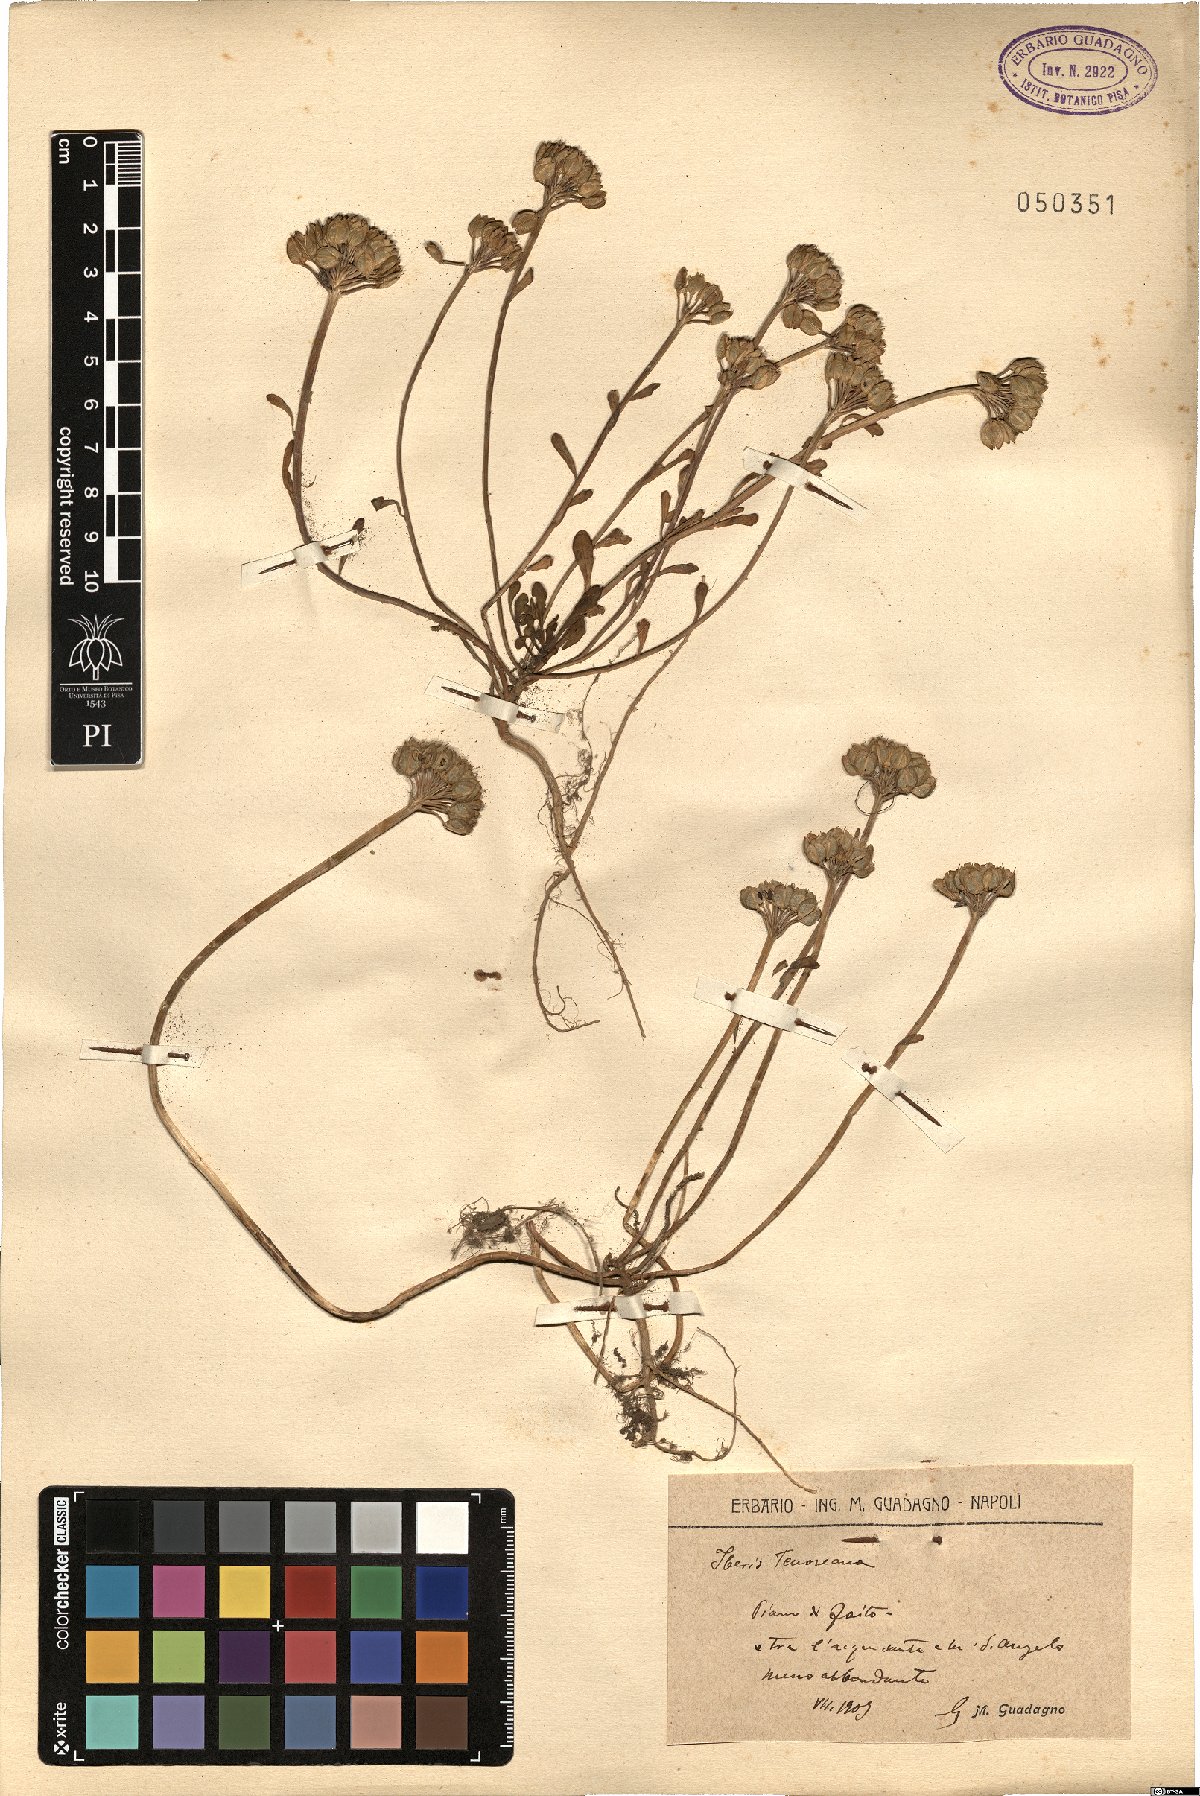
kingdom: Plantae
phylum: Tracheophyta
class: Magnoliopsida
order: Brassicales
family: Brassicaceae
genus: Iberis
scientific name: Iberis carnosa
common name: Pruit's candytuft
